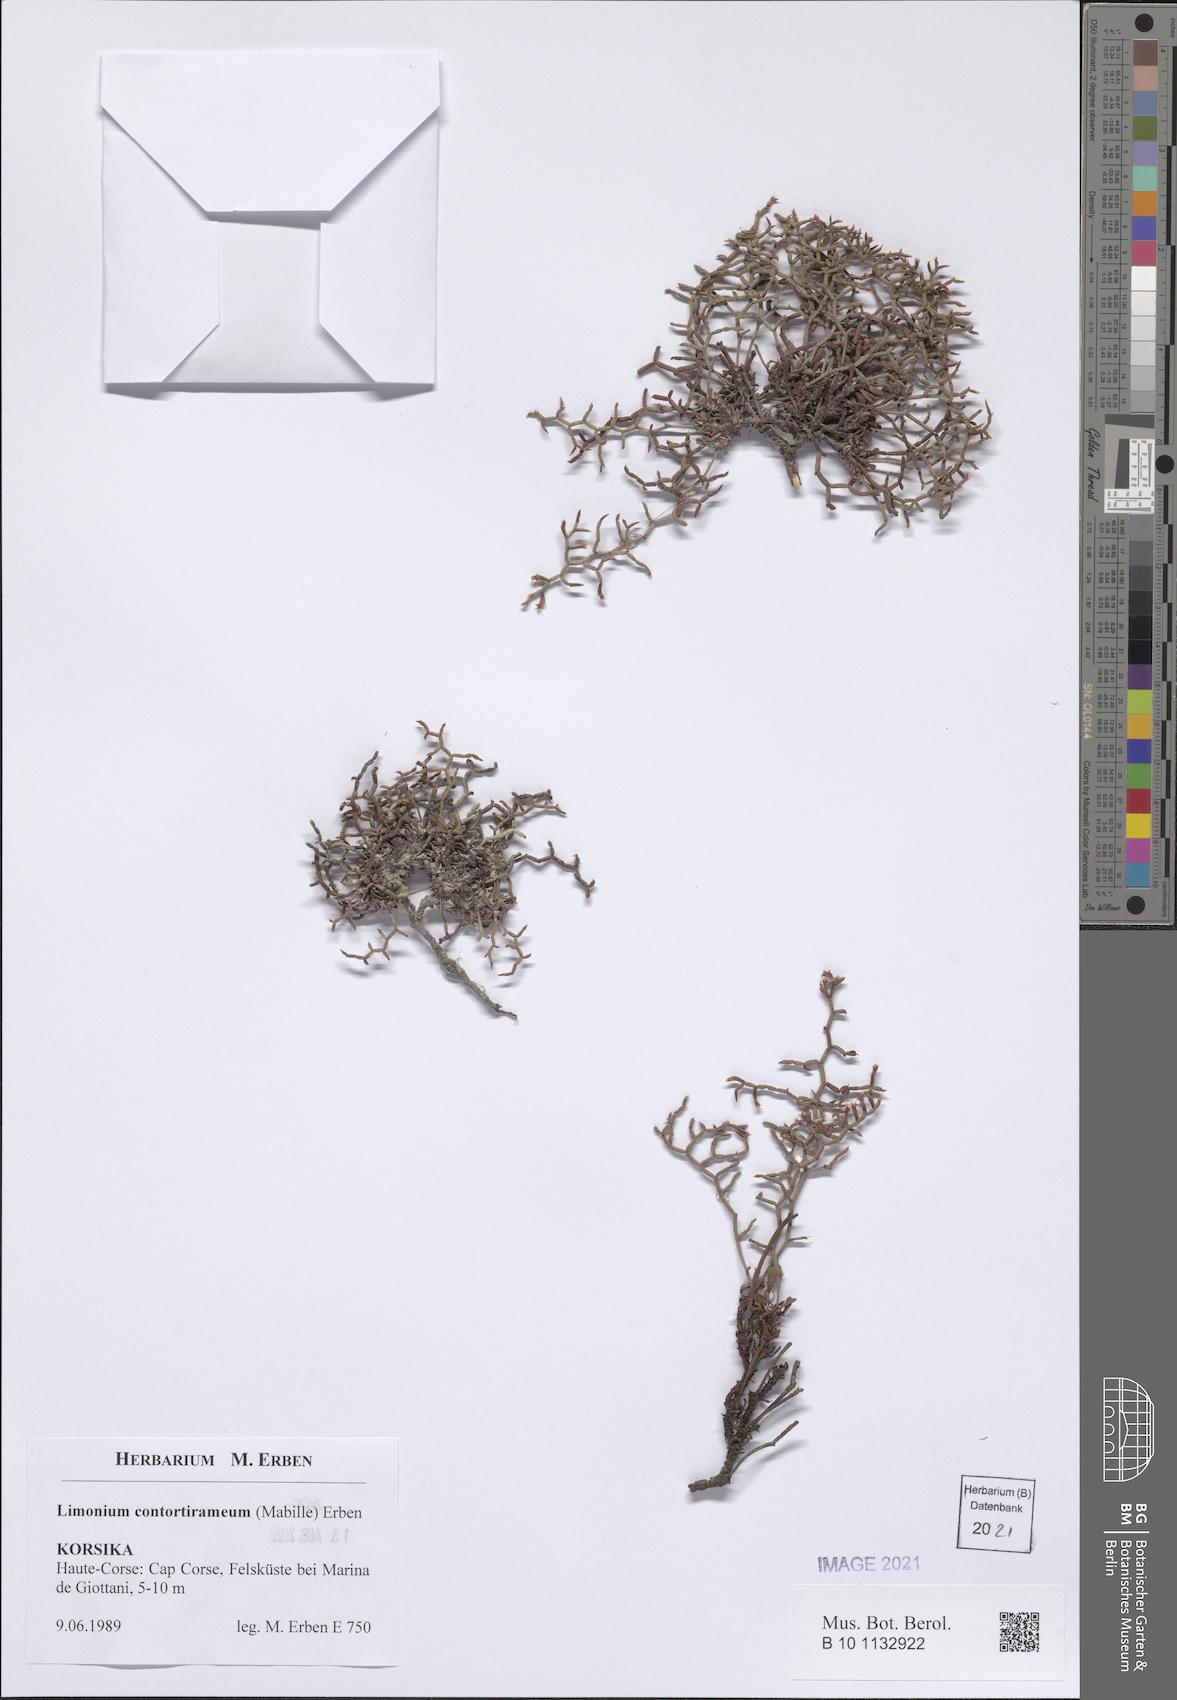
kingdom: Plantae
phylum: Tracheophyta
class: Magnoliopsida
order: Caryophyllales
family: Plumbaginaceae
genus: Limonium
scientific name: Limonium contortirameum
